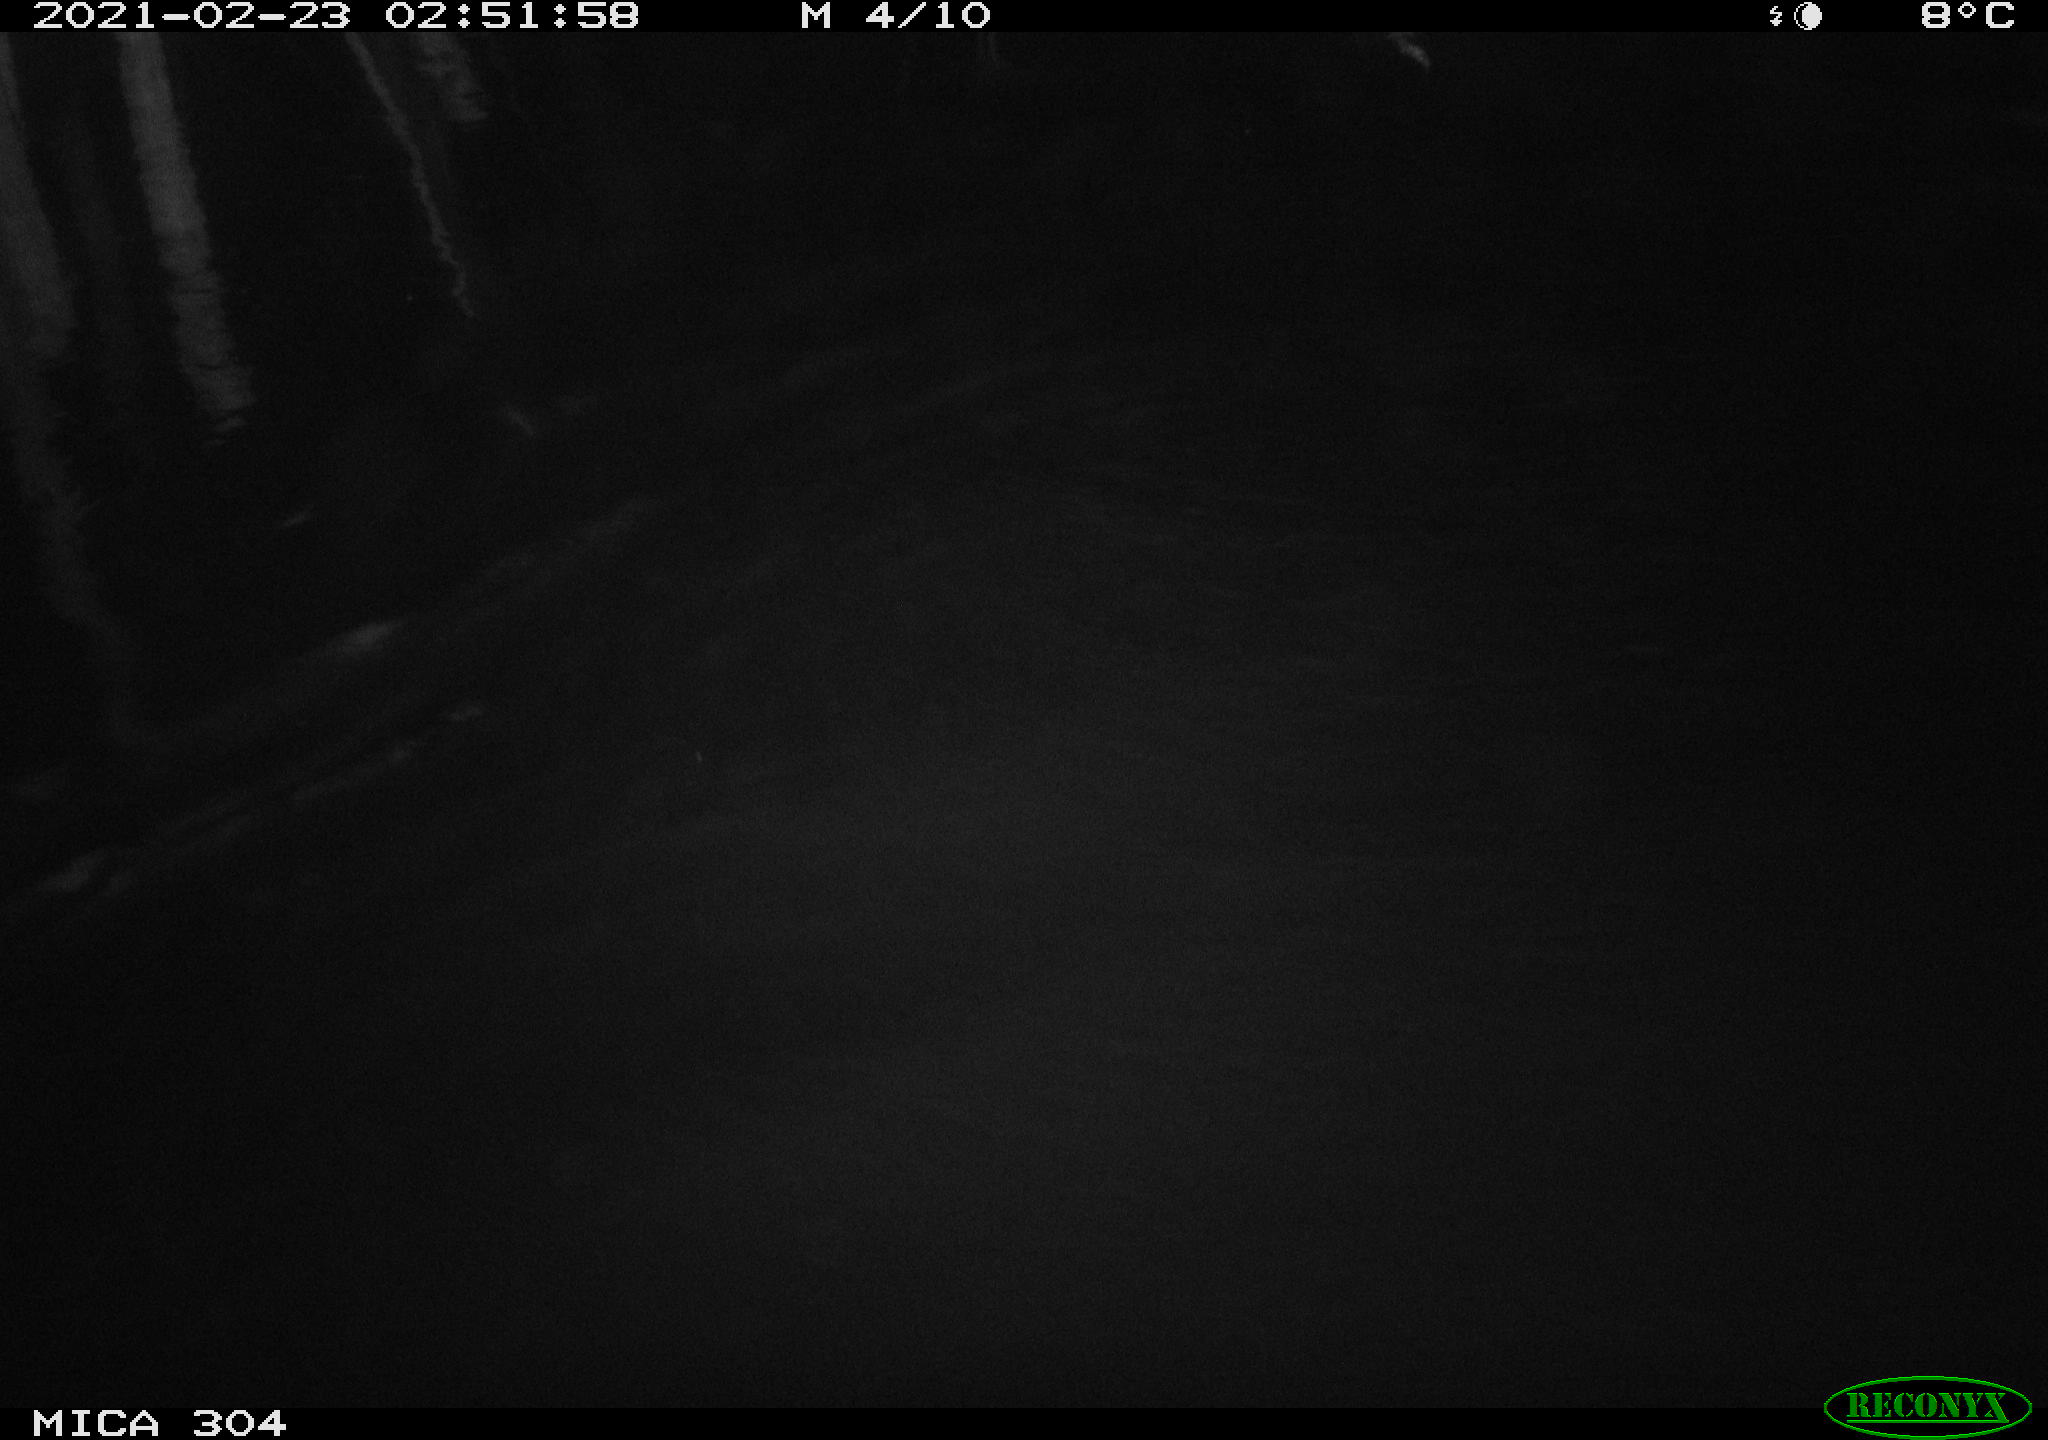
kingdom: Animalia
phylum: Chordata
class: Mammalia
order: Rodentia
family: Cricetidae
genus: Ondatra
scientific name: Ondatra zibethicus
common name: Muskrat
